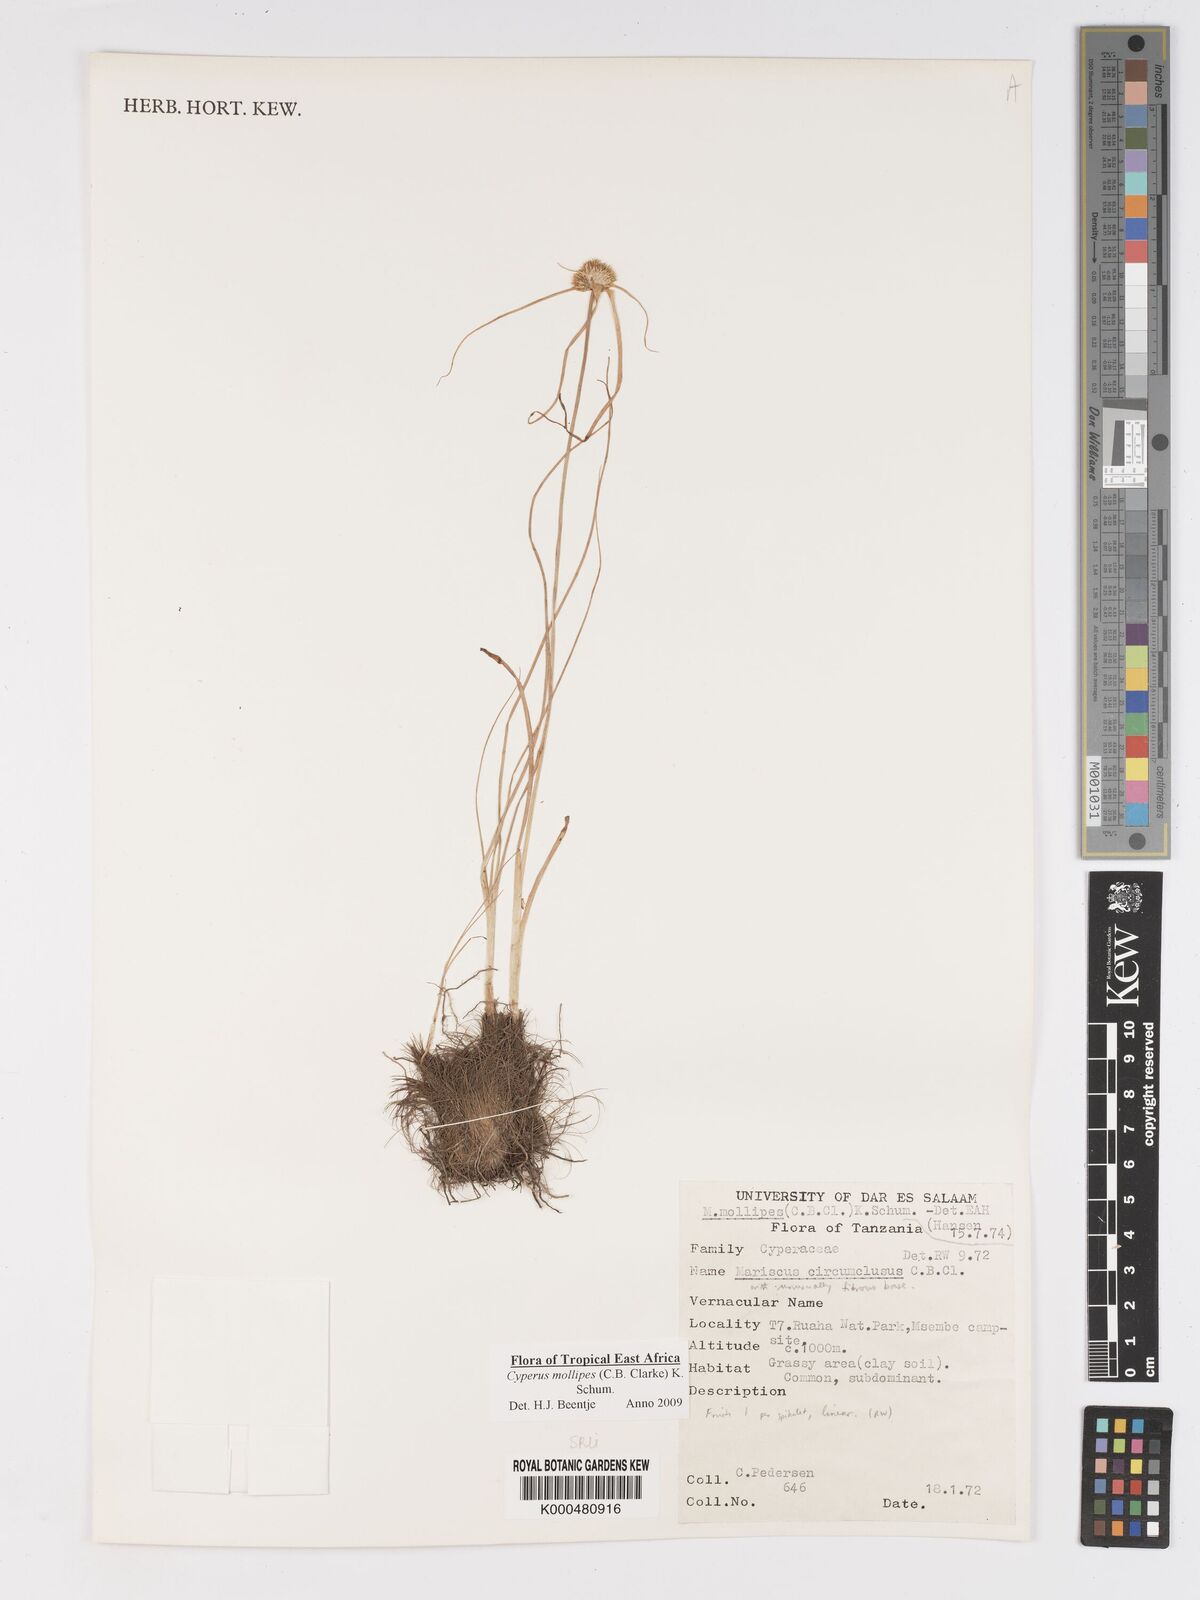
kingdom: Plantae
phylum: Tracheophyta
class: Liliopsida
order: Poales
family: Cyperaceae
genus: Cyperus
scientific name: Cyperus mollipes
